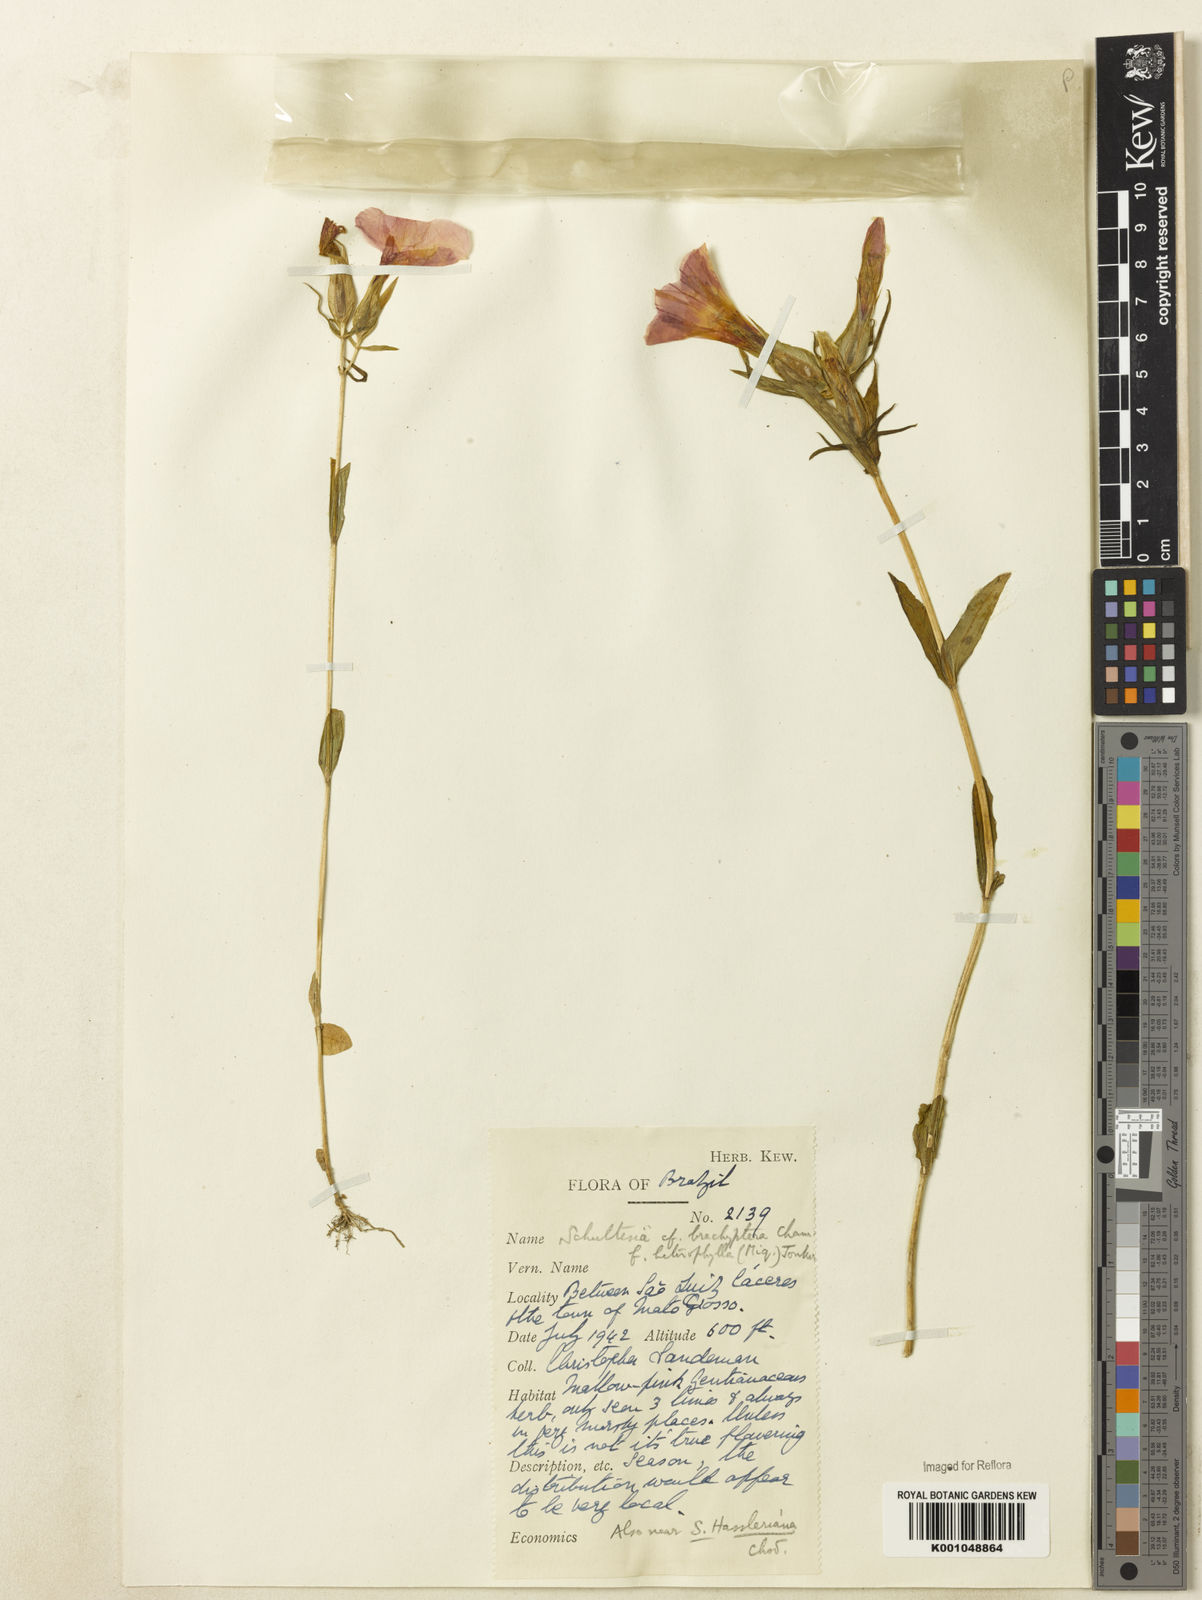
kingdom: Plantae
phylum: Tracheophyta
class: Magnoliopsida
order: Gentianales
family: Gentianaceae
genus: Schultesia
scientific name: Schultesia brachyptera
